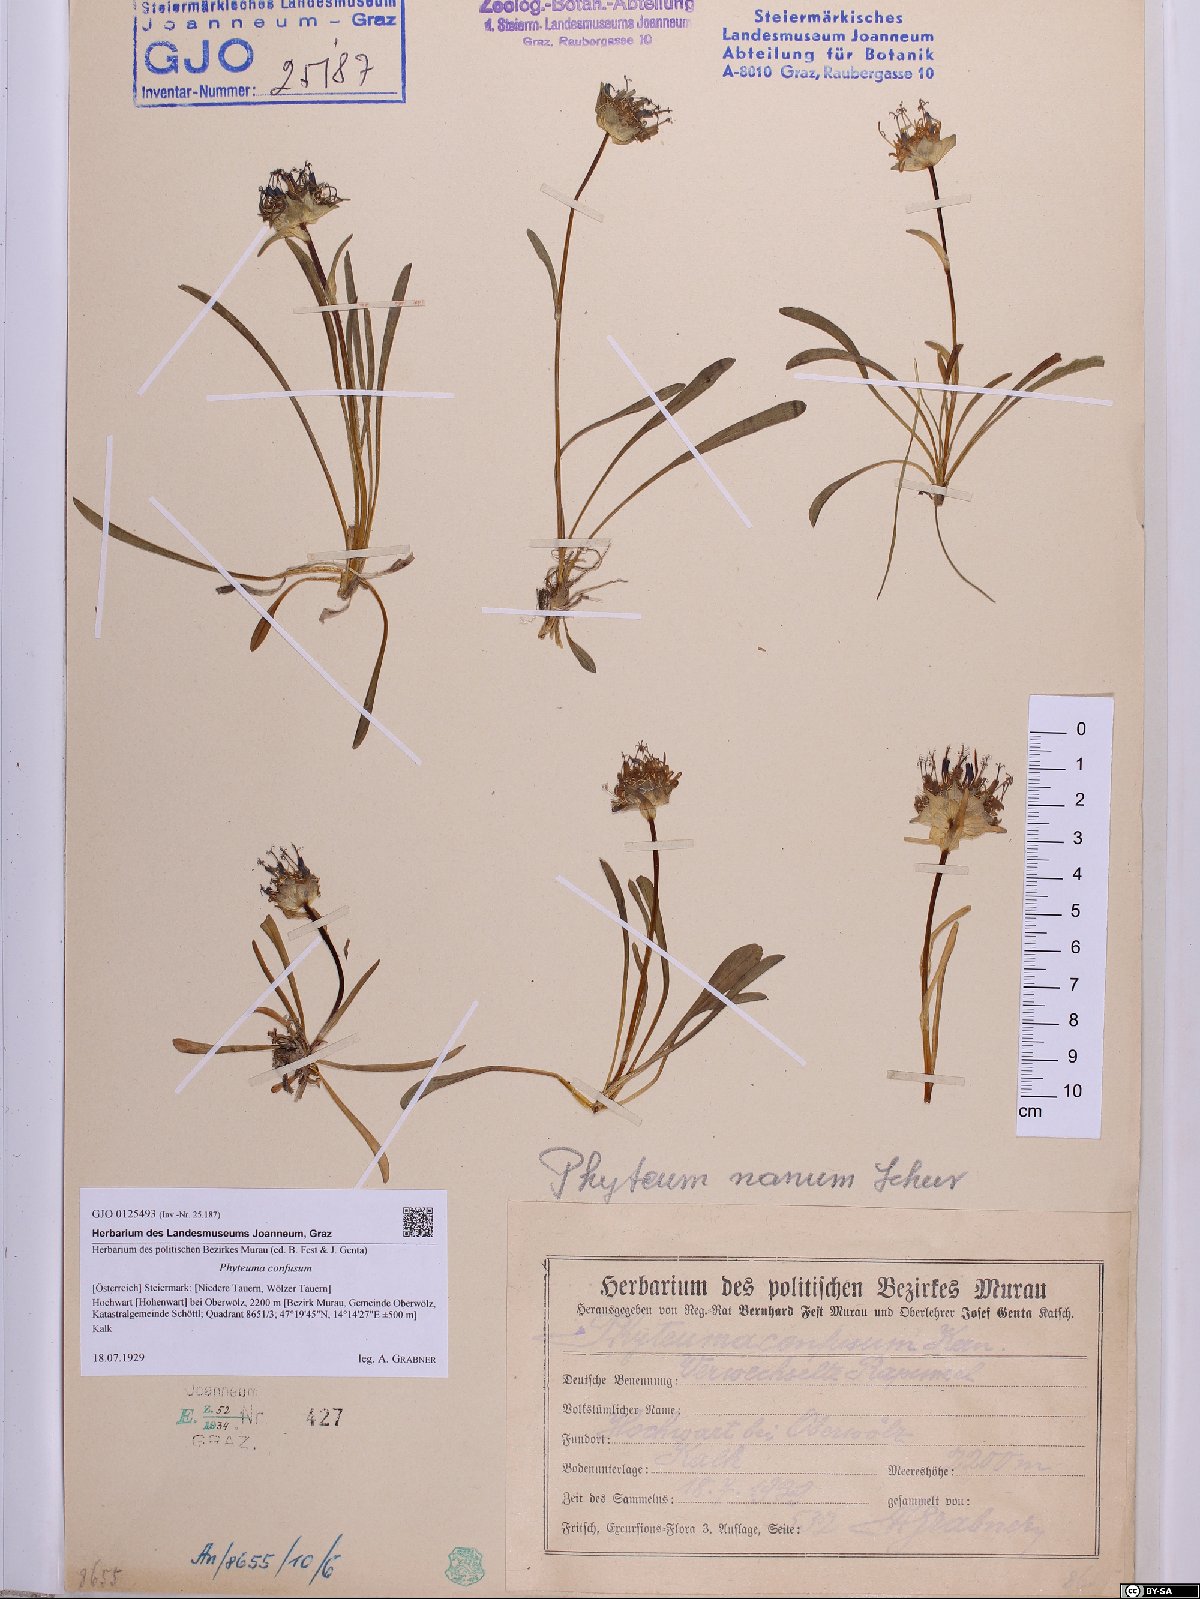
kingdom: Plantae
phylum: Tracheophyta
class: Magnoliopsida
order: Asterales
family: Campanulaceae
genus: Phyteuma
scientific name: Phyteuma confusum
